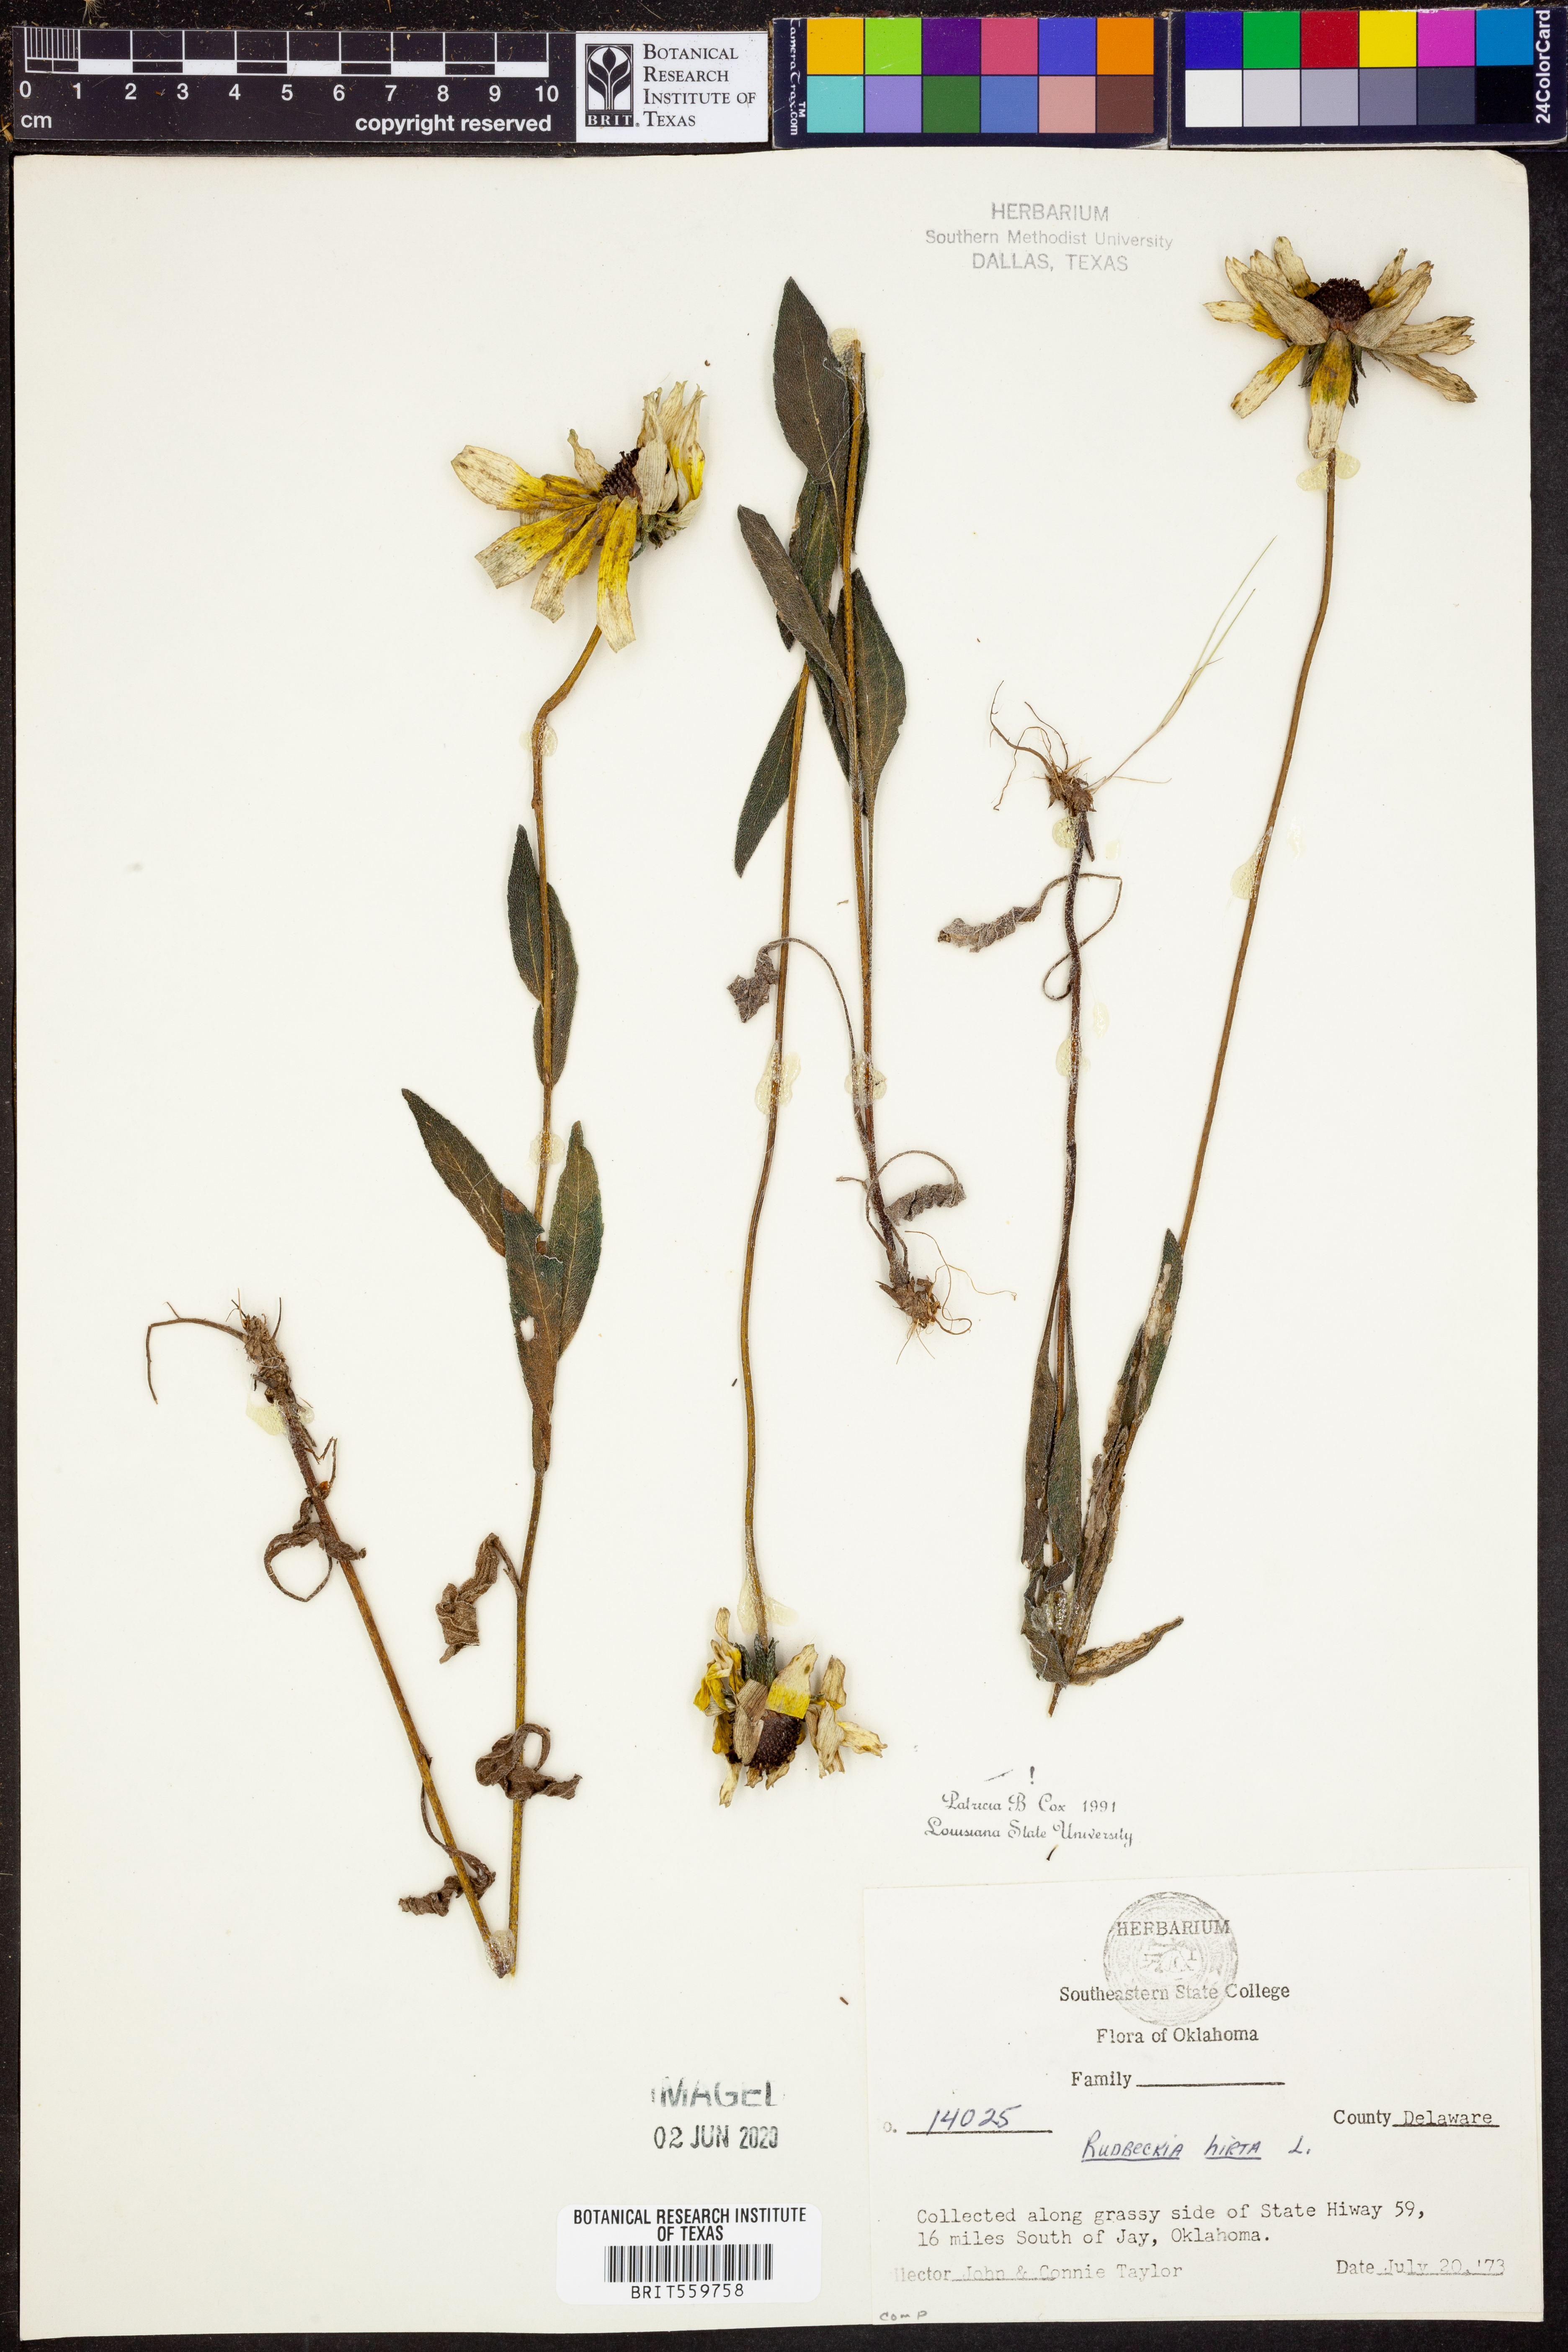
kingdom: Plantae
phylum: Tracheophyta
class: Magnoliopsida
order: Asterales
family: Asteraceae
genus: Rudbeckia
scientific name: Rudbeckia hirta
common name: Black-eyed-susan
